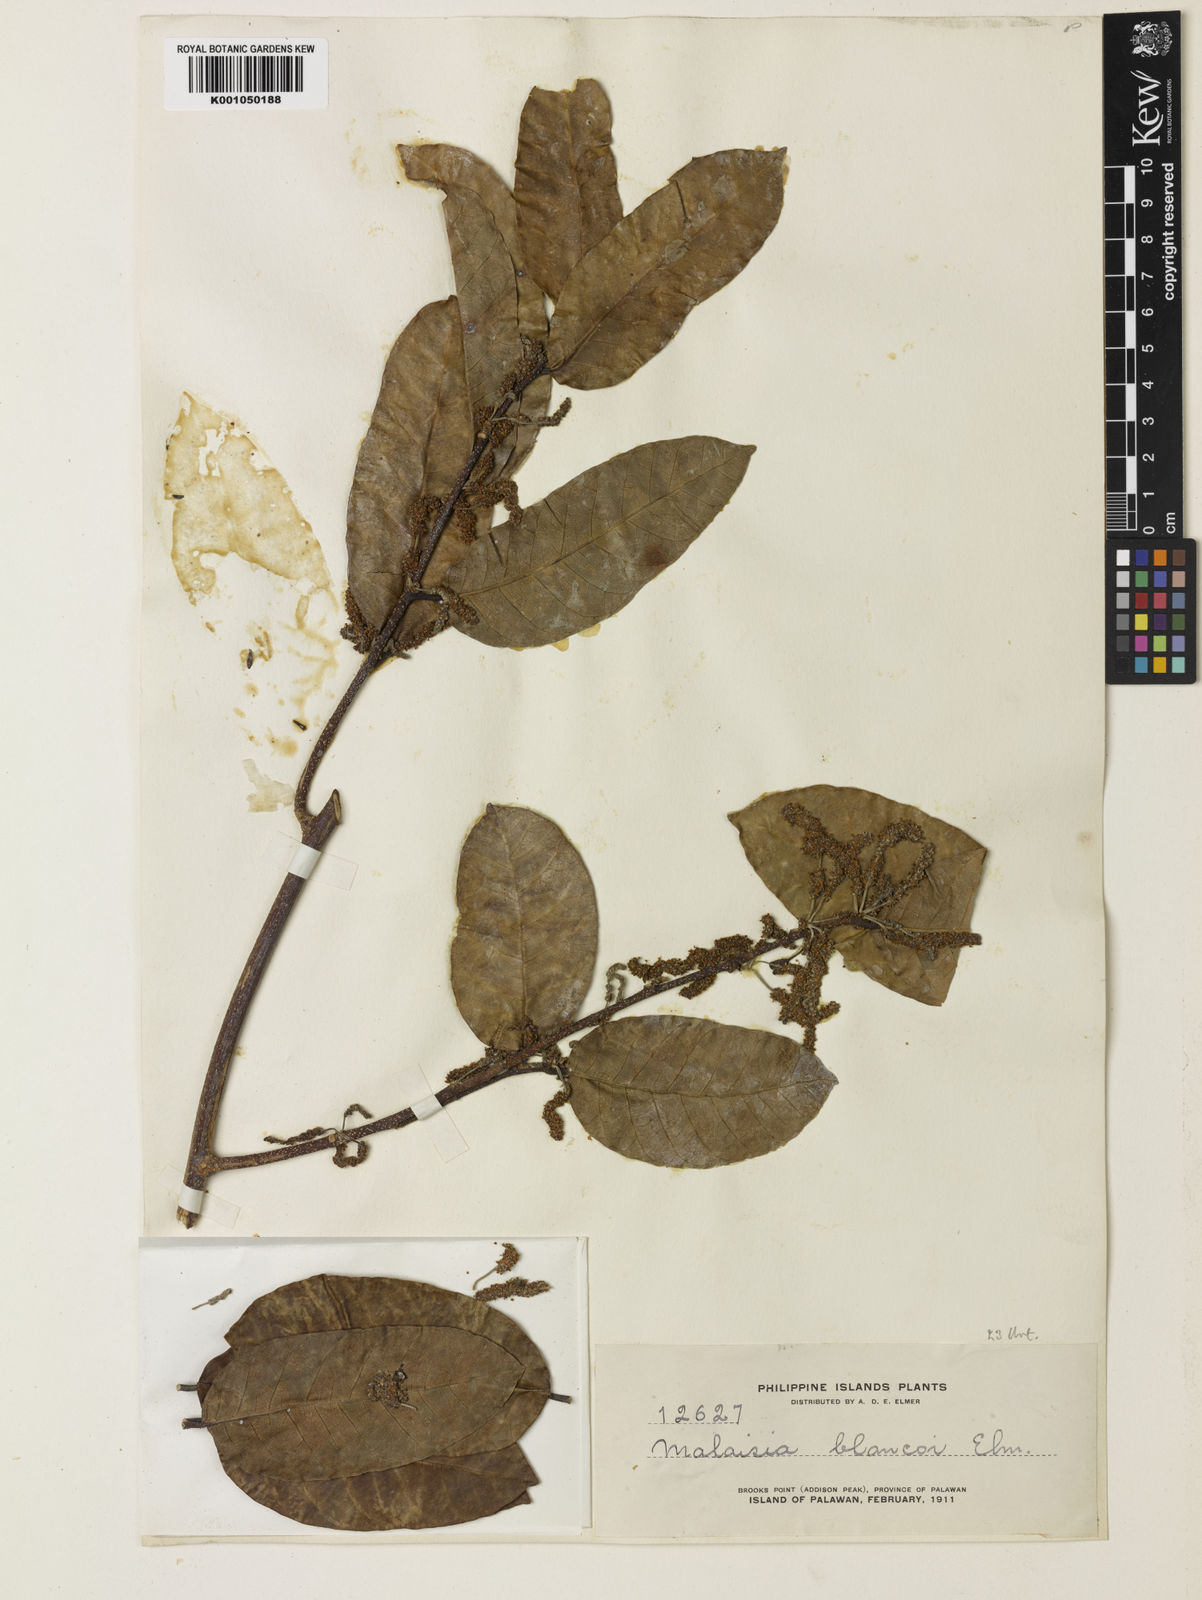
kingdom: Plantae
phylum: Tracheophyta
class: Magnoliopsida
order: Rosales
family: Moraceae
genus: Malaisia
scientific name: Malaisia scandens
